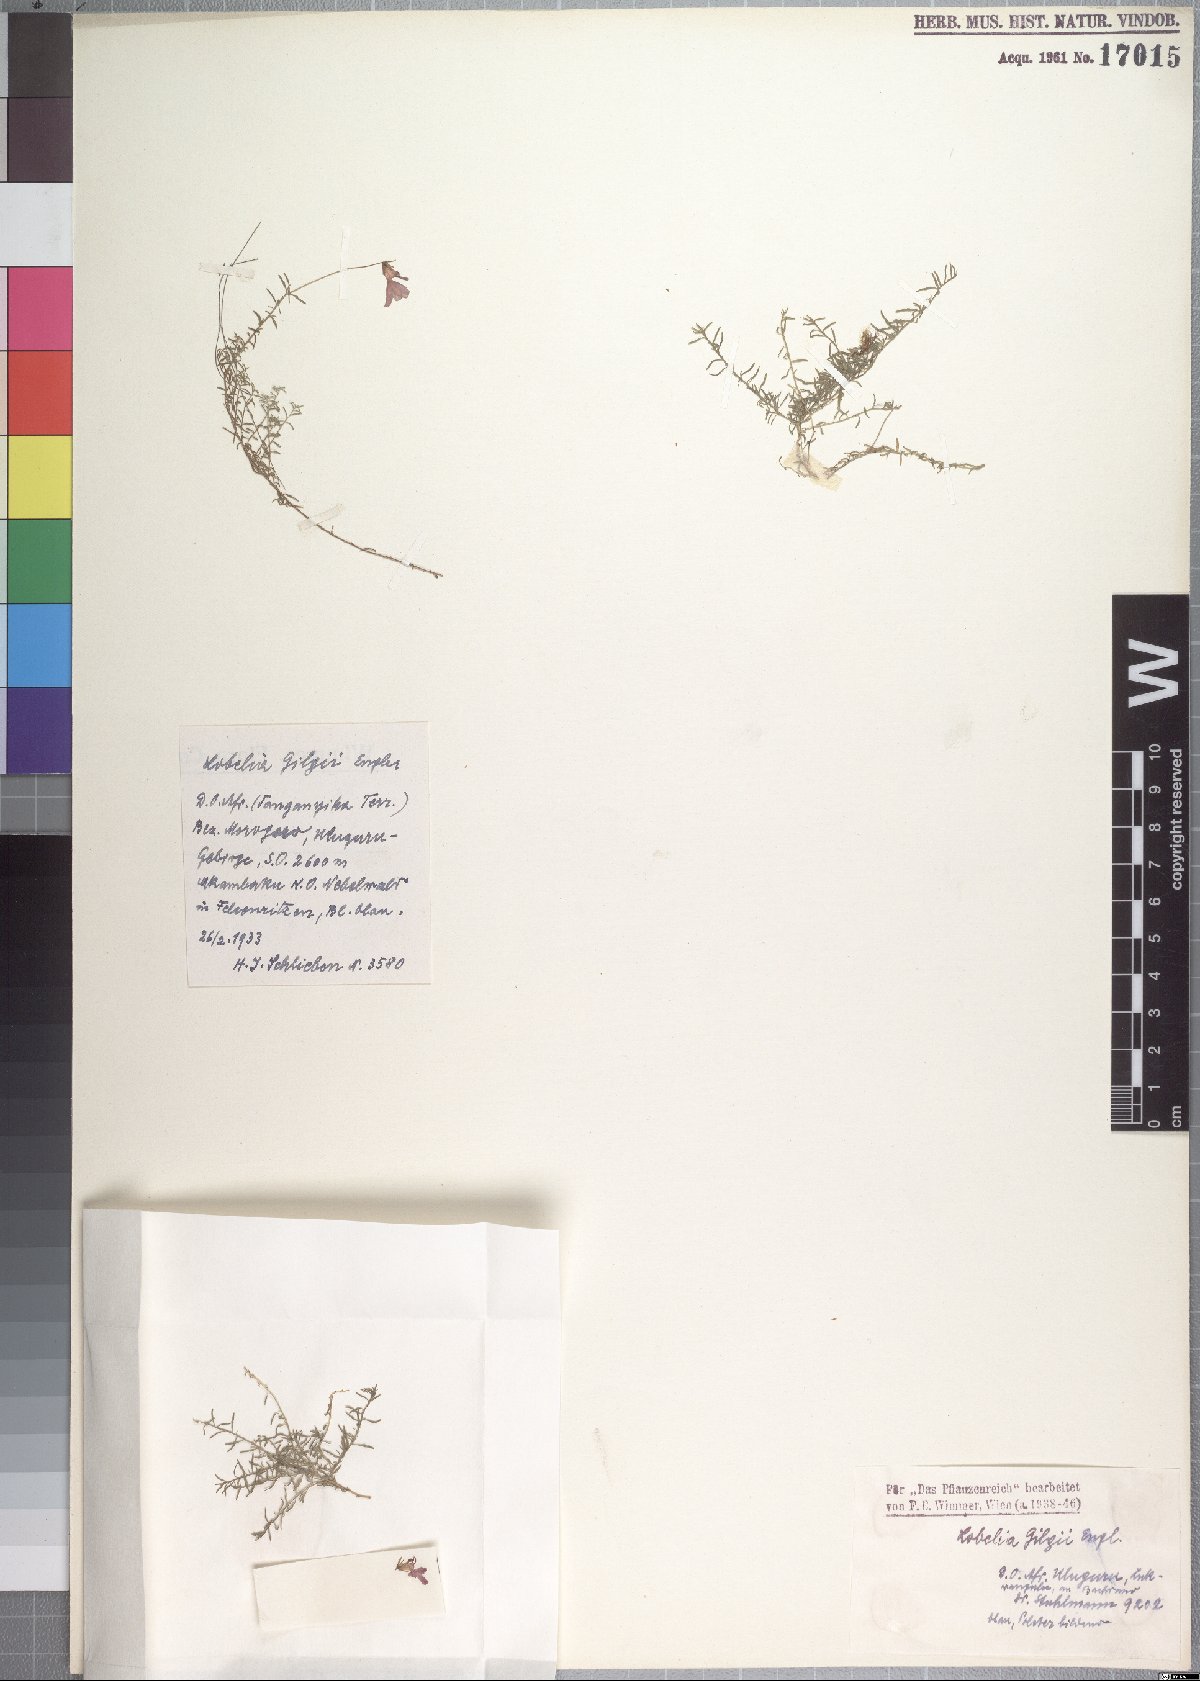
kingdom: Plantae
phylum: Tracheophyta
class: Magnoliopsida
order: Asterales
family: Campanulaceae
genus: Lobelia
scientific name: Lobelia gilgii
